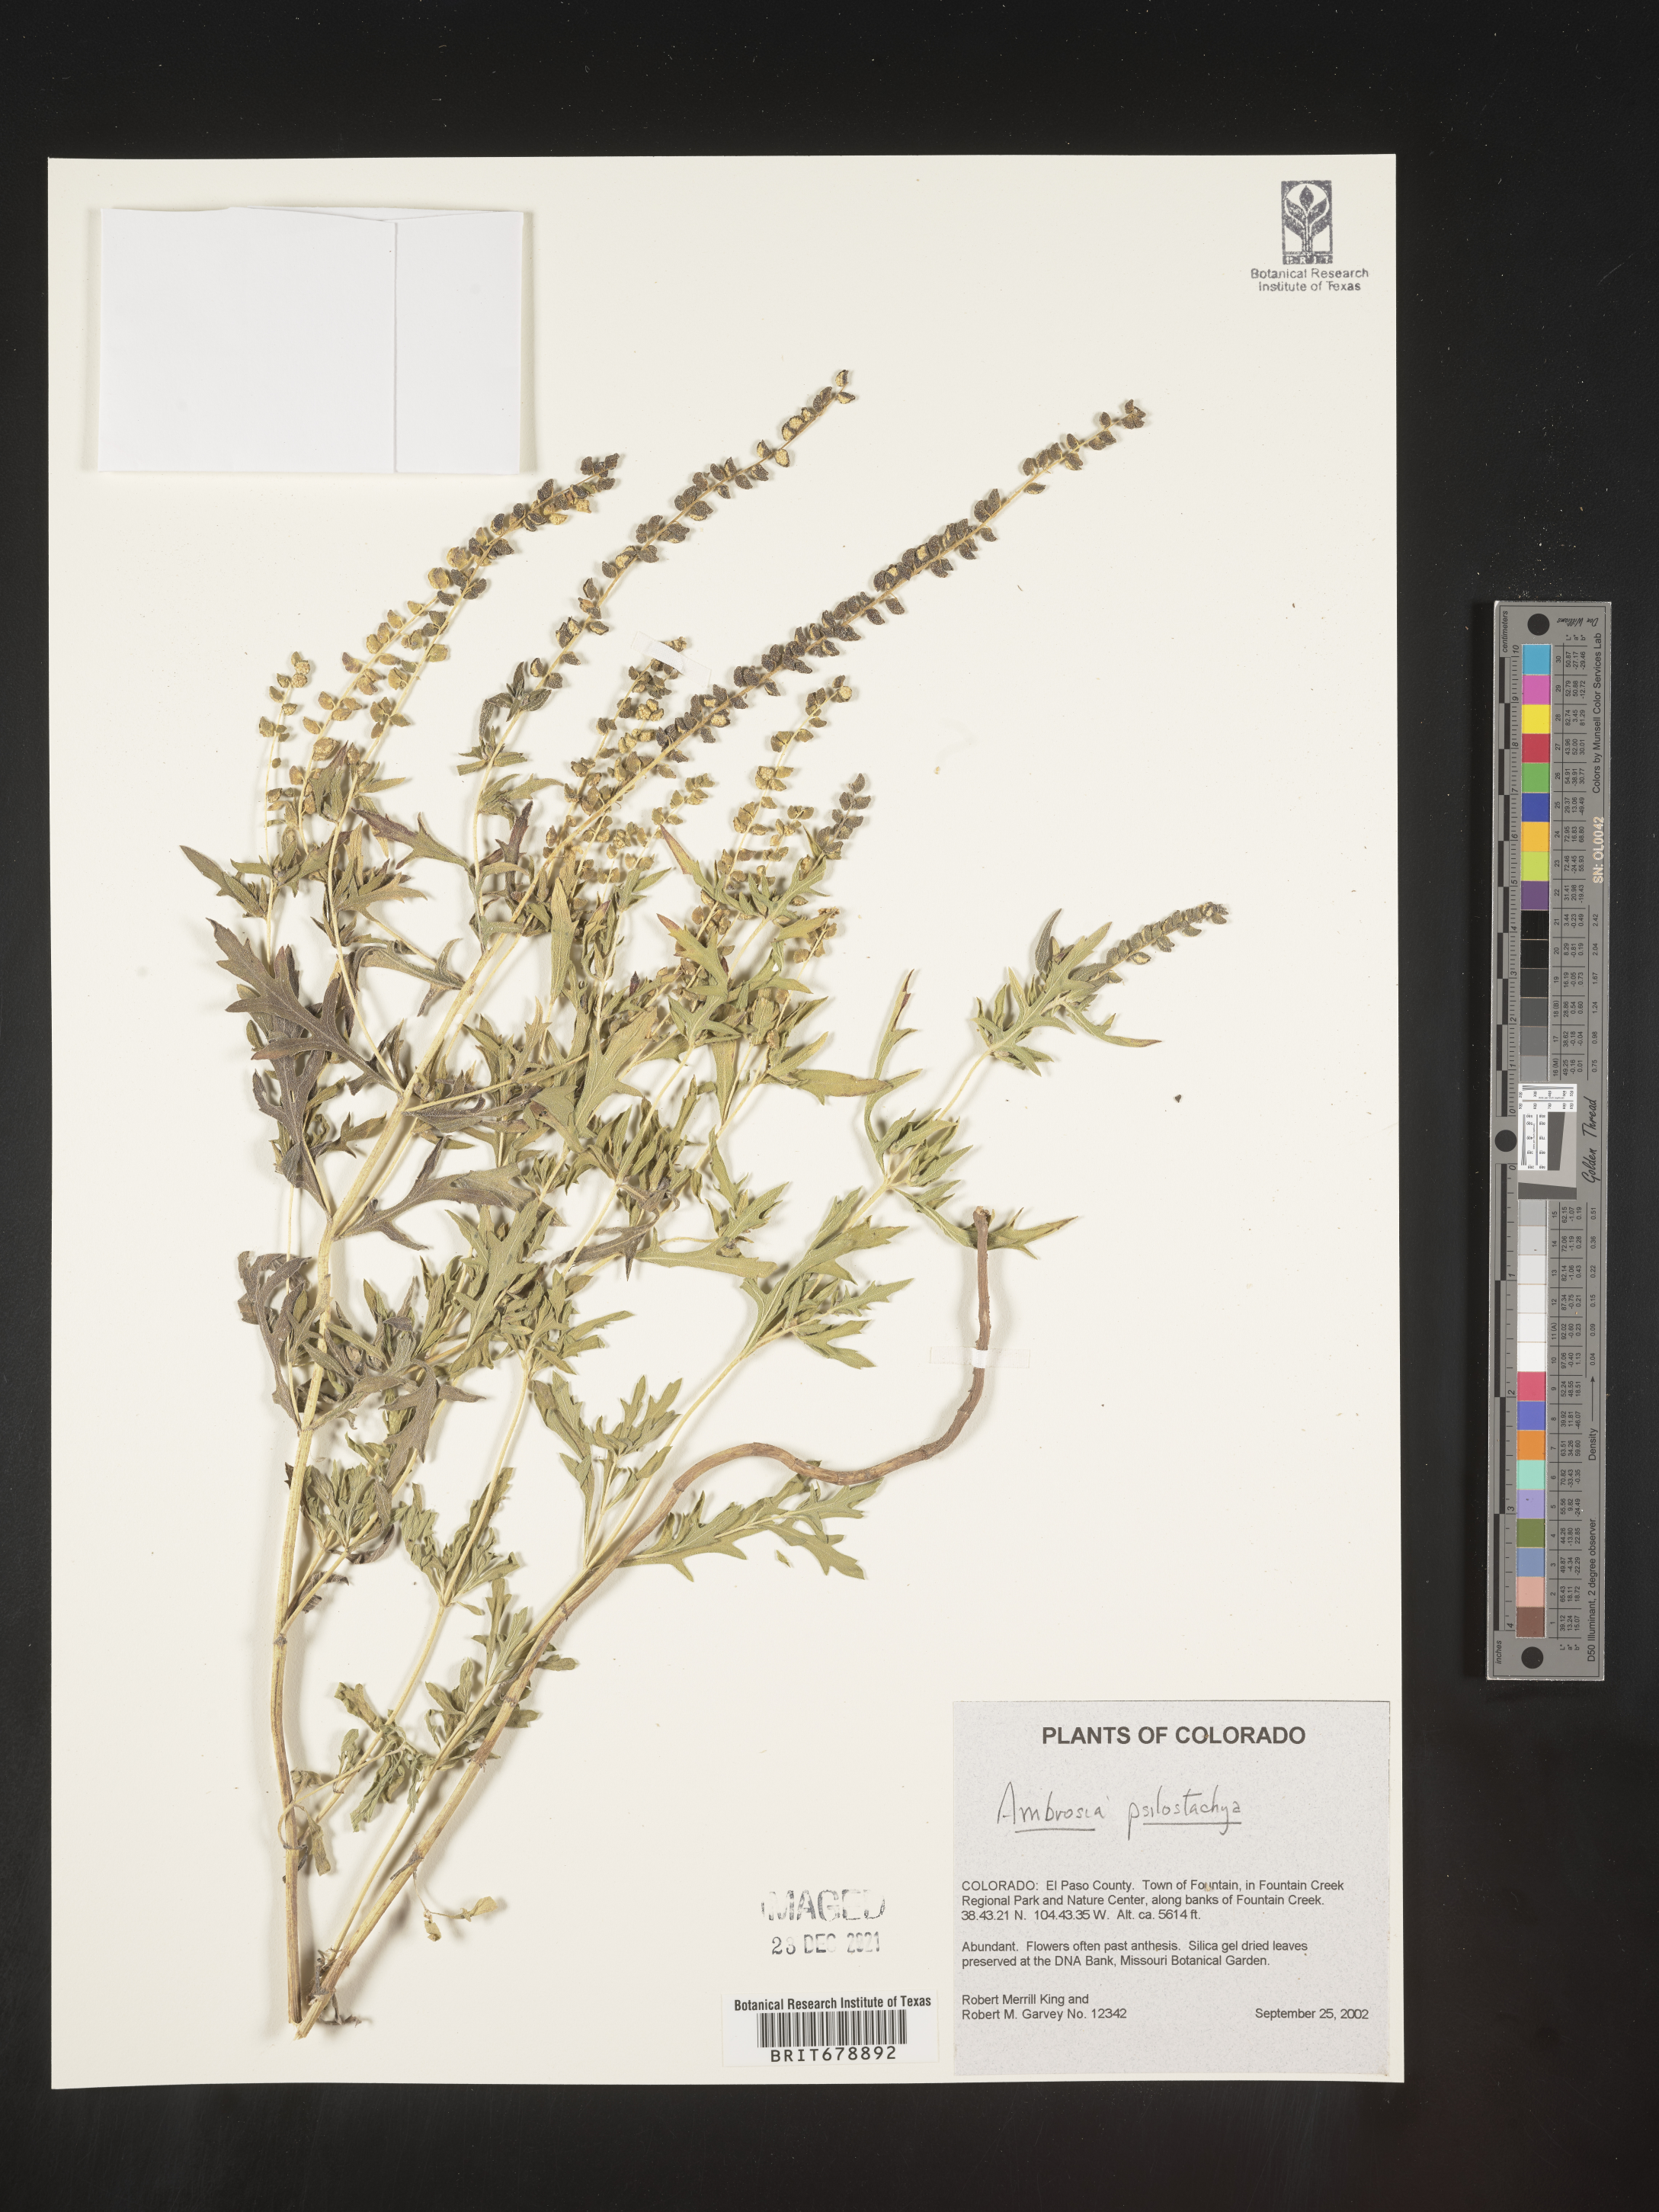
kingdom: Plantae
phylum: Tracheophyta
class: Magnoliopsida
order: Asterales
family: Asteraceae
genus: Ambrosia
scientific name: Ambrosia psilostachya
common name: Perennial ragweed
